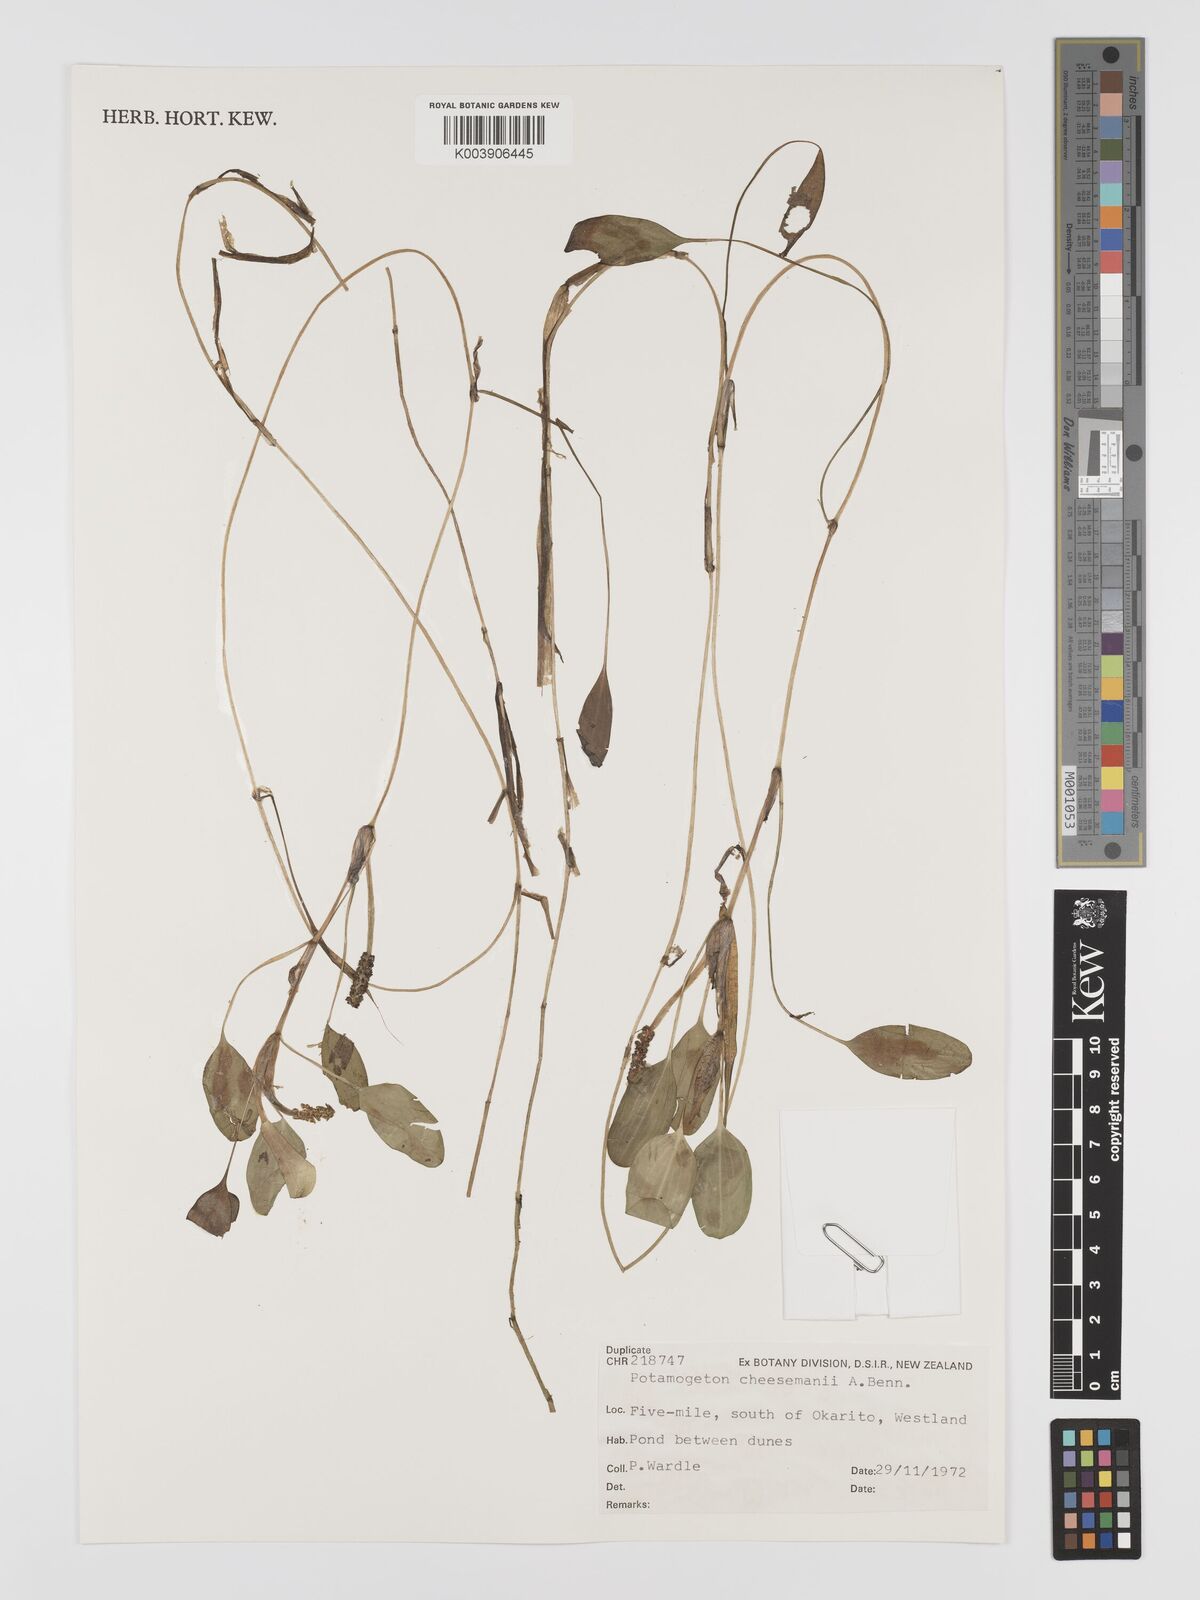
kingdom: Plantae
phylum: Tracheophyta
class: Liliopsida
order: Alismatales
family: Potamogetonaceae
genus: Potamogeton
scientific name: Potamogeton cheesemanii
